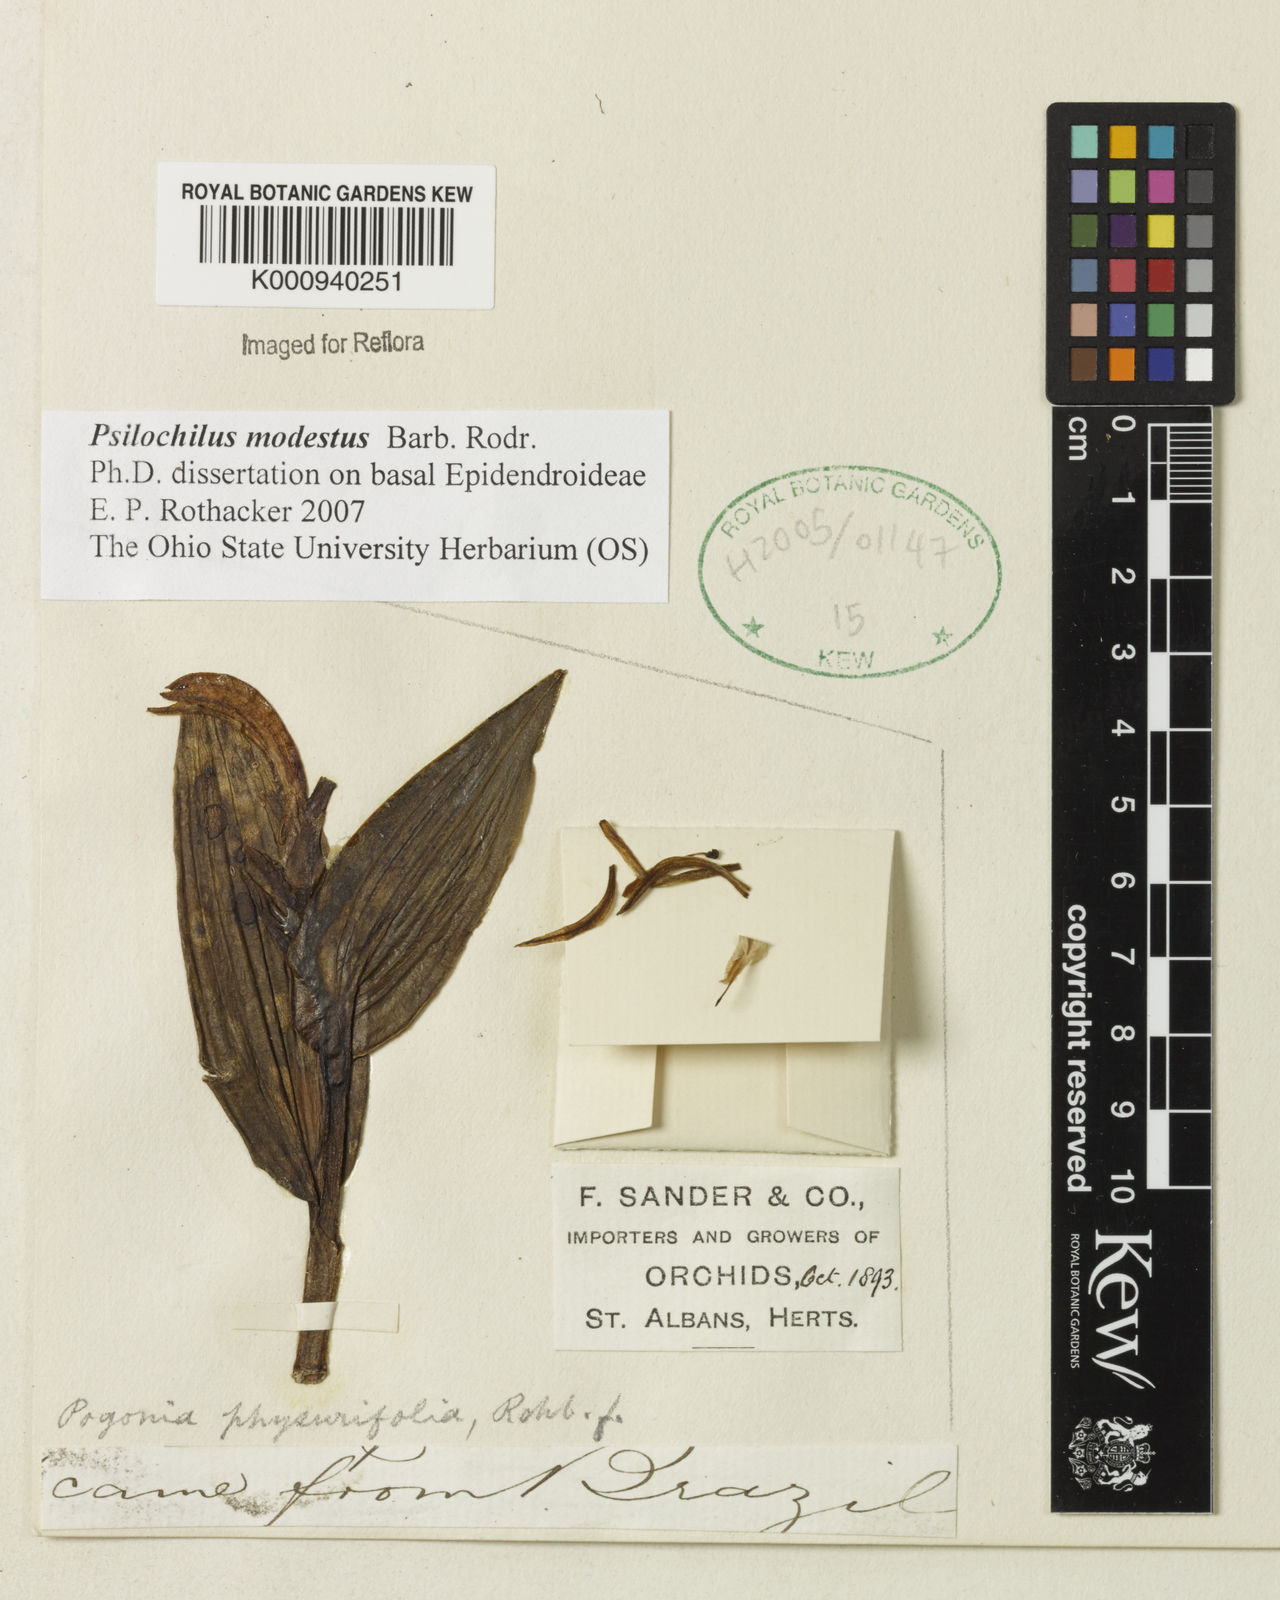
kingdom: Plantae
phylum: Tracheophyta
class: Liliopsida
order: Asparagales
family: Orchidaceae
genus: Psilochilus
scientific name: Psilochilus modestus
